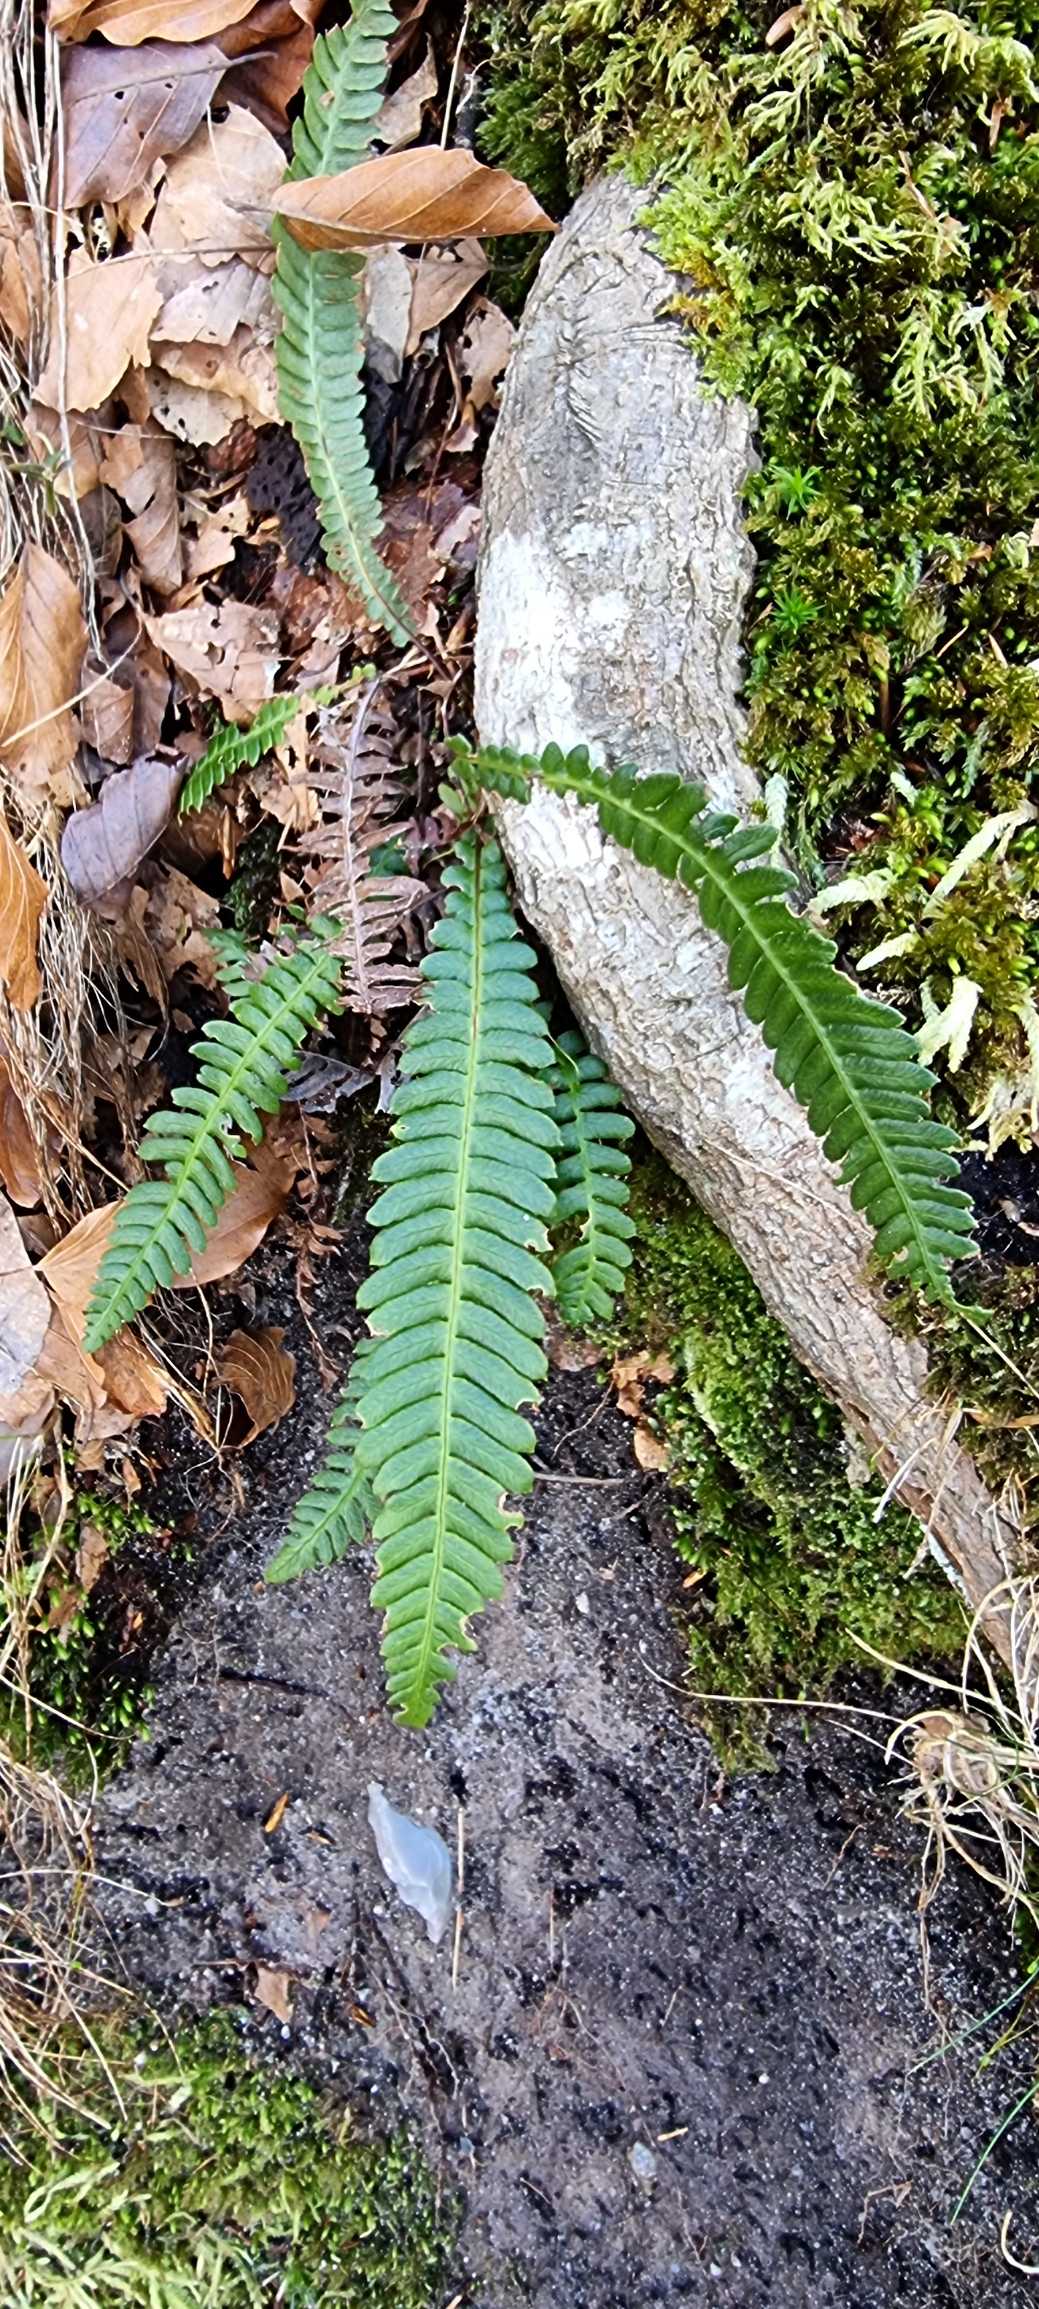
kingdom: Plantae
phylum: Tracheophyta
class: Polypodiopsida
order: Polypodiales
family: Blechnaceae
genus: Struthiopteris
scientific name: Struthiopteris spicant
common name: Kambregne
